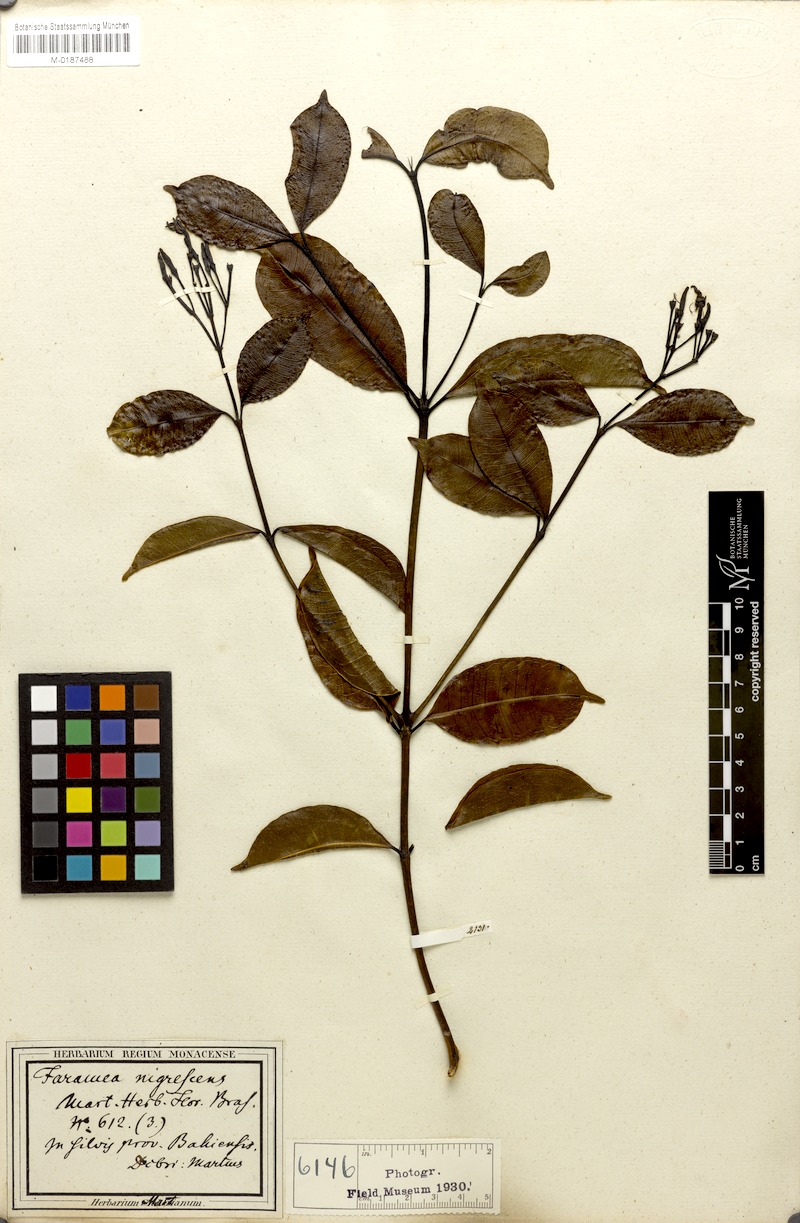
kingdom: Plantae
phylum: Tracheophyta
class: Magnoliopsida
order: Gentianales
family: Rubiaceae
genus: Faramea
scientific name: Faramea nigrescens
